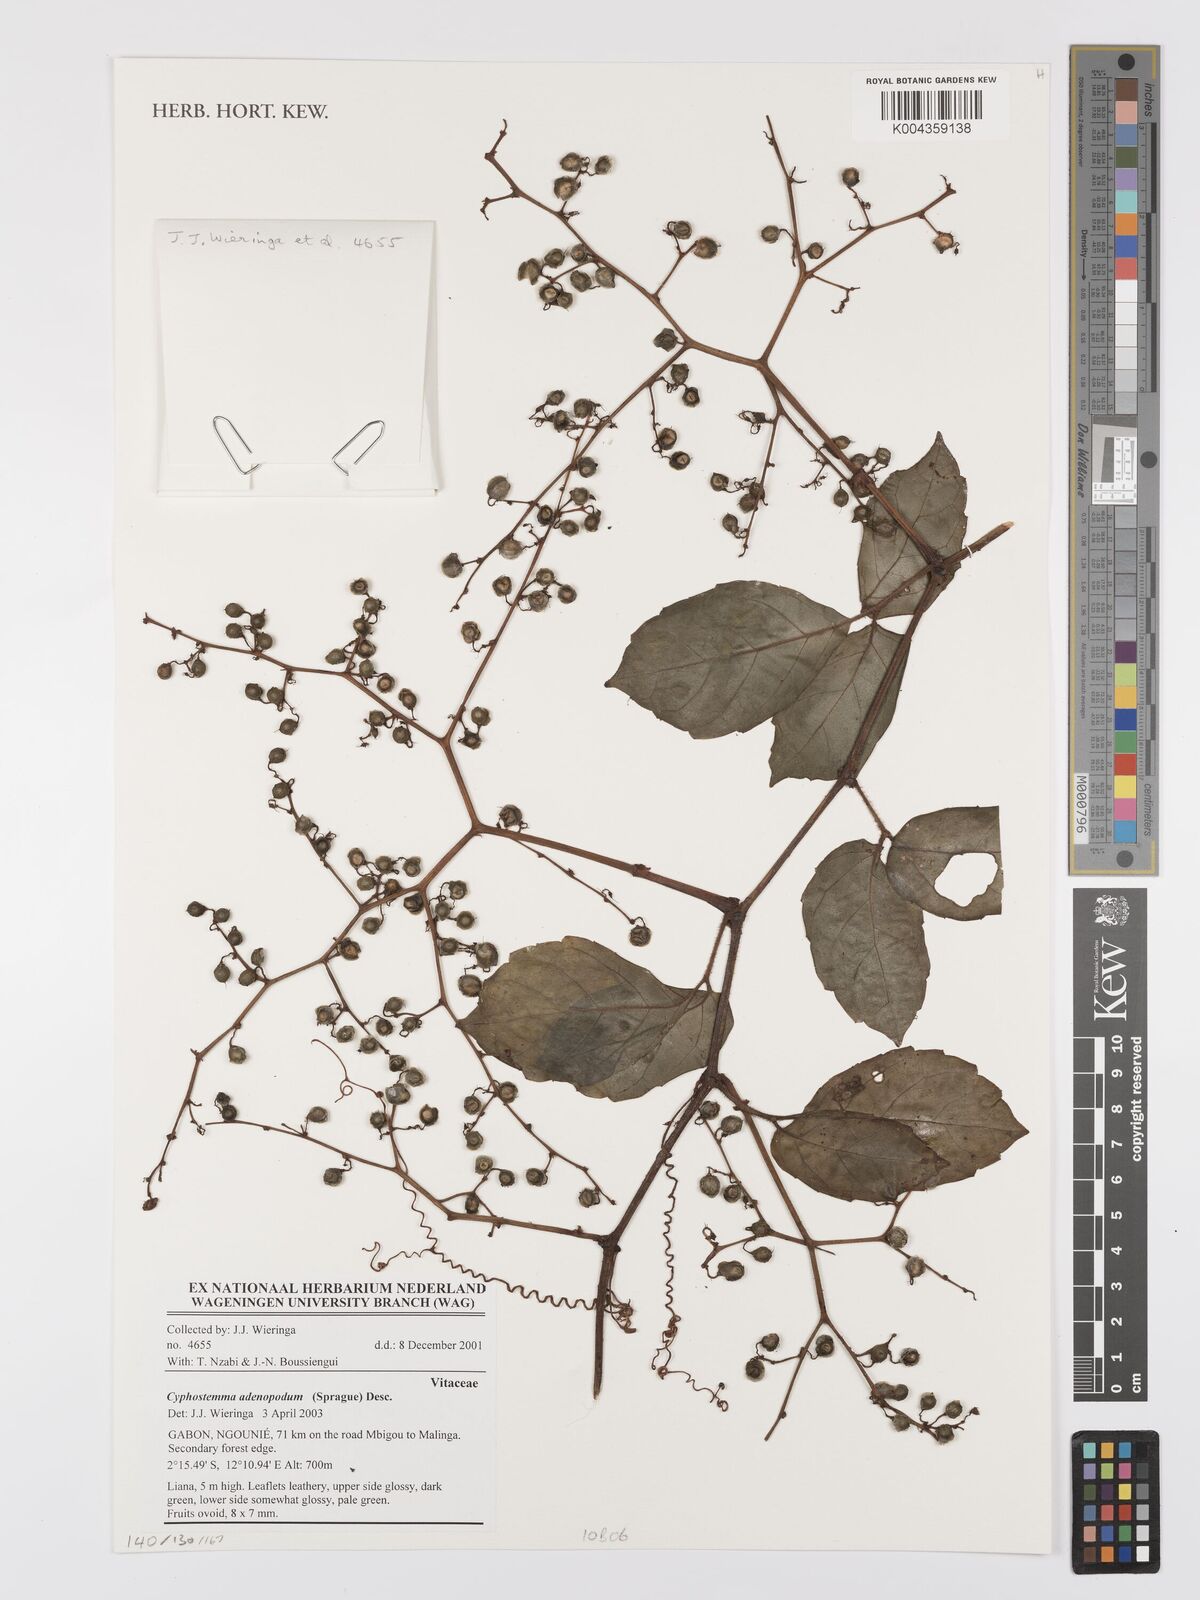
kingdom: Plantae
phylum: Tracheophyta
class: Magnoliopsida
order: Vitales
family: Vitaceae
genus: Cyphostemma
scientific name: Cyphostemma adenopodum
